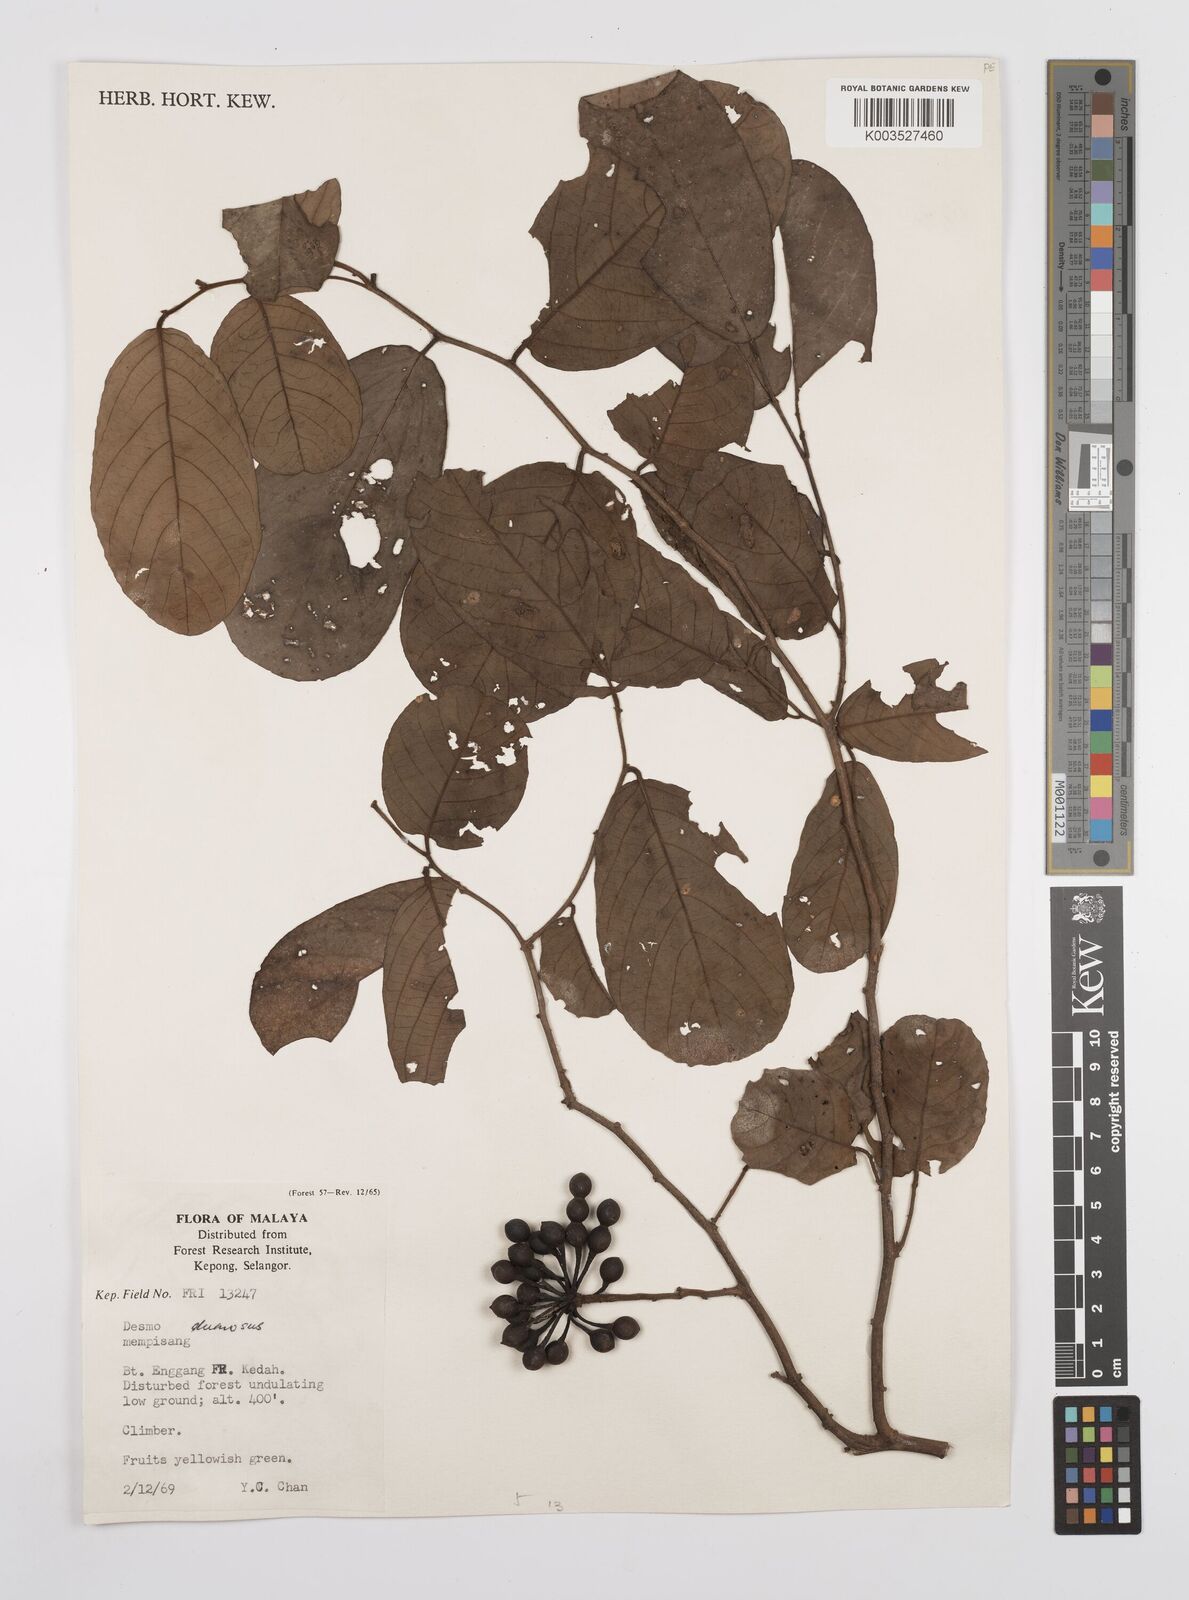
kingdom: Plantae
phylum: Tracheophyta
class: Magnoliopsida
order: Magnoliales
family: Annonaceae
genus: Desmos
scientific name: Desmos dumosus
